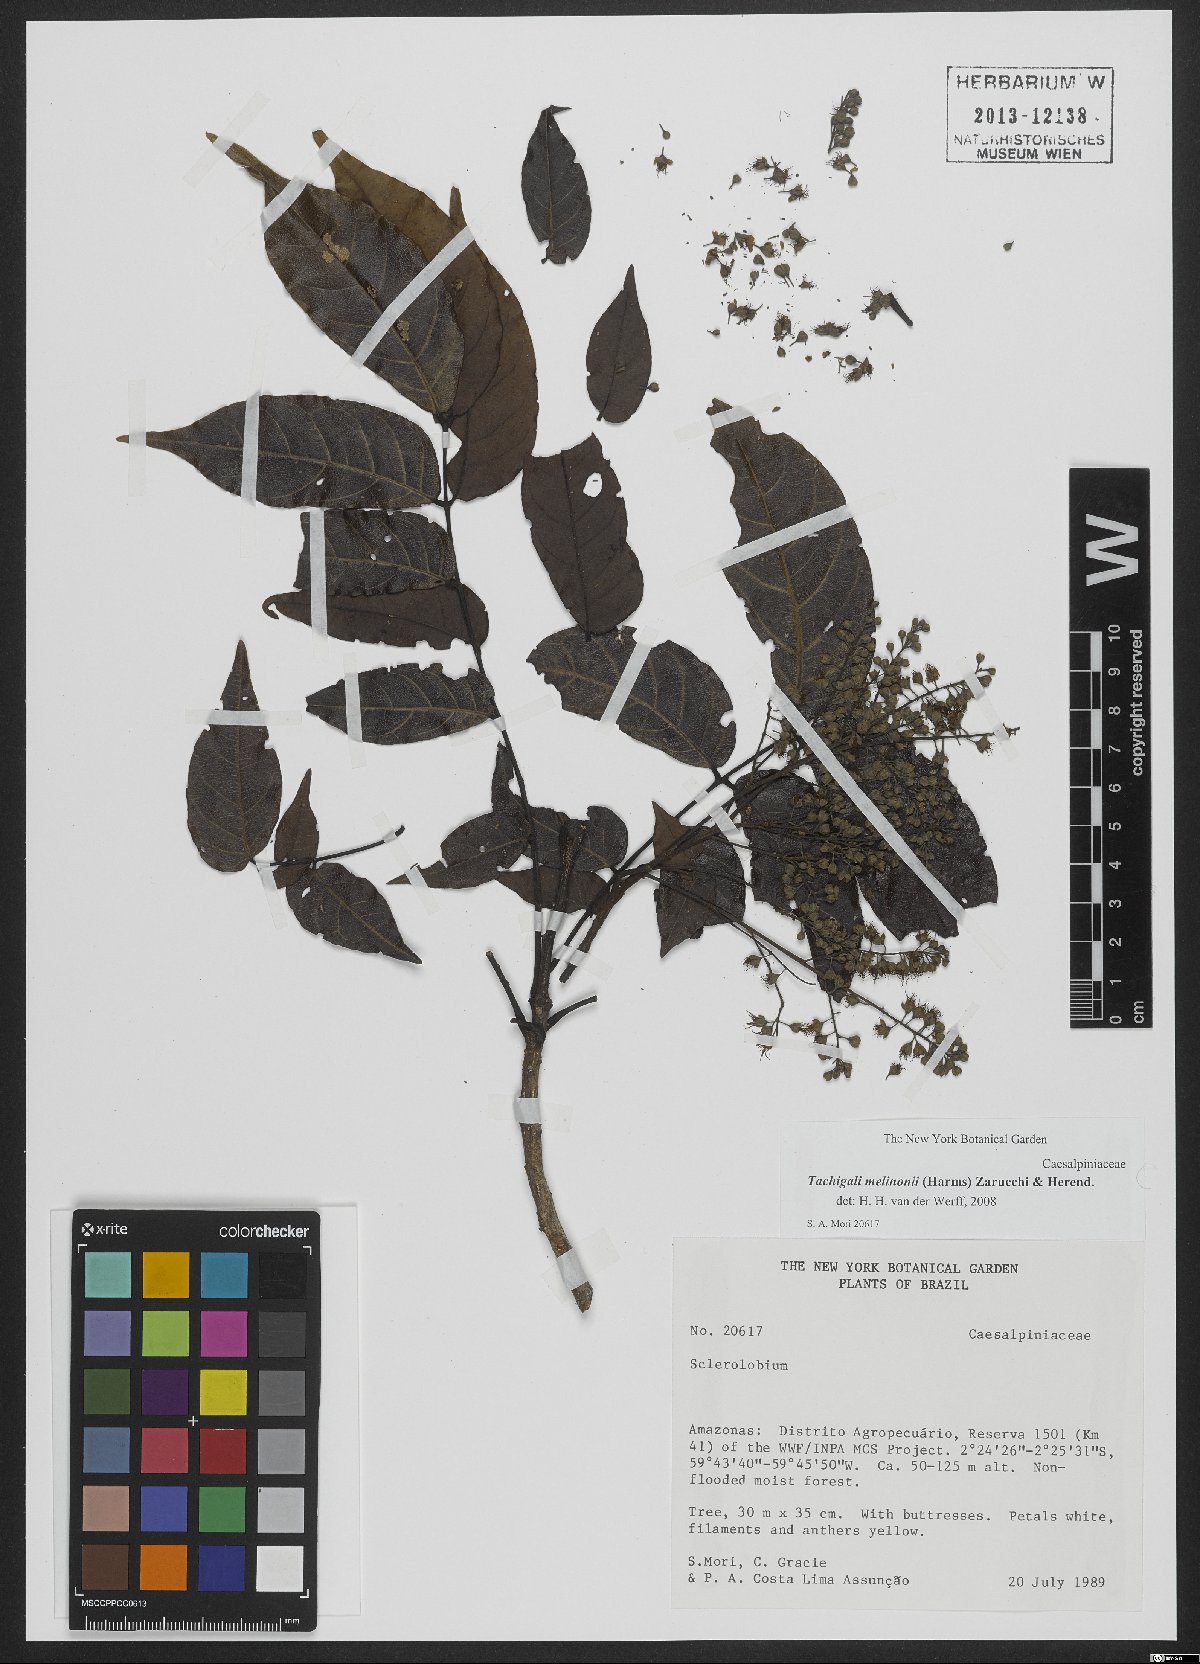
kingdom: Plantae
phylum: Tracheophyta
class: Magnoliopsida
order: Fabales
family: Fabaceae
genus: Tachigali
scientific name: Tachigali melinonii
